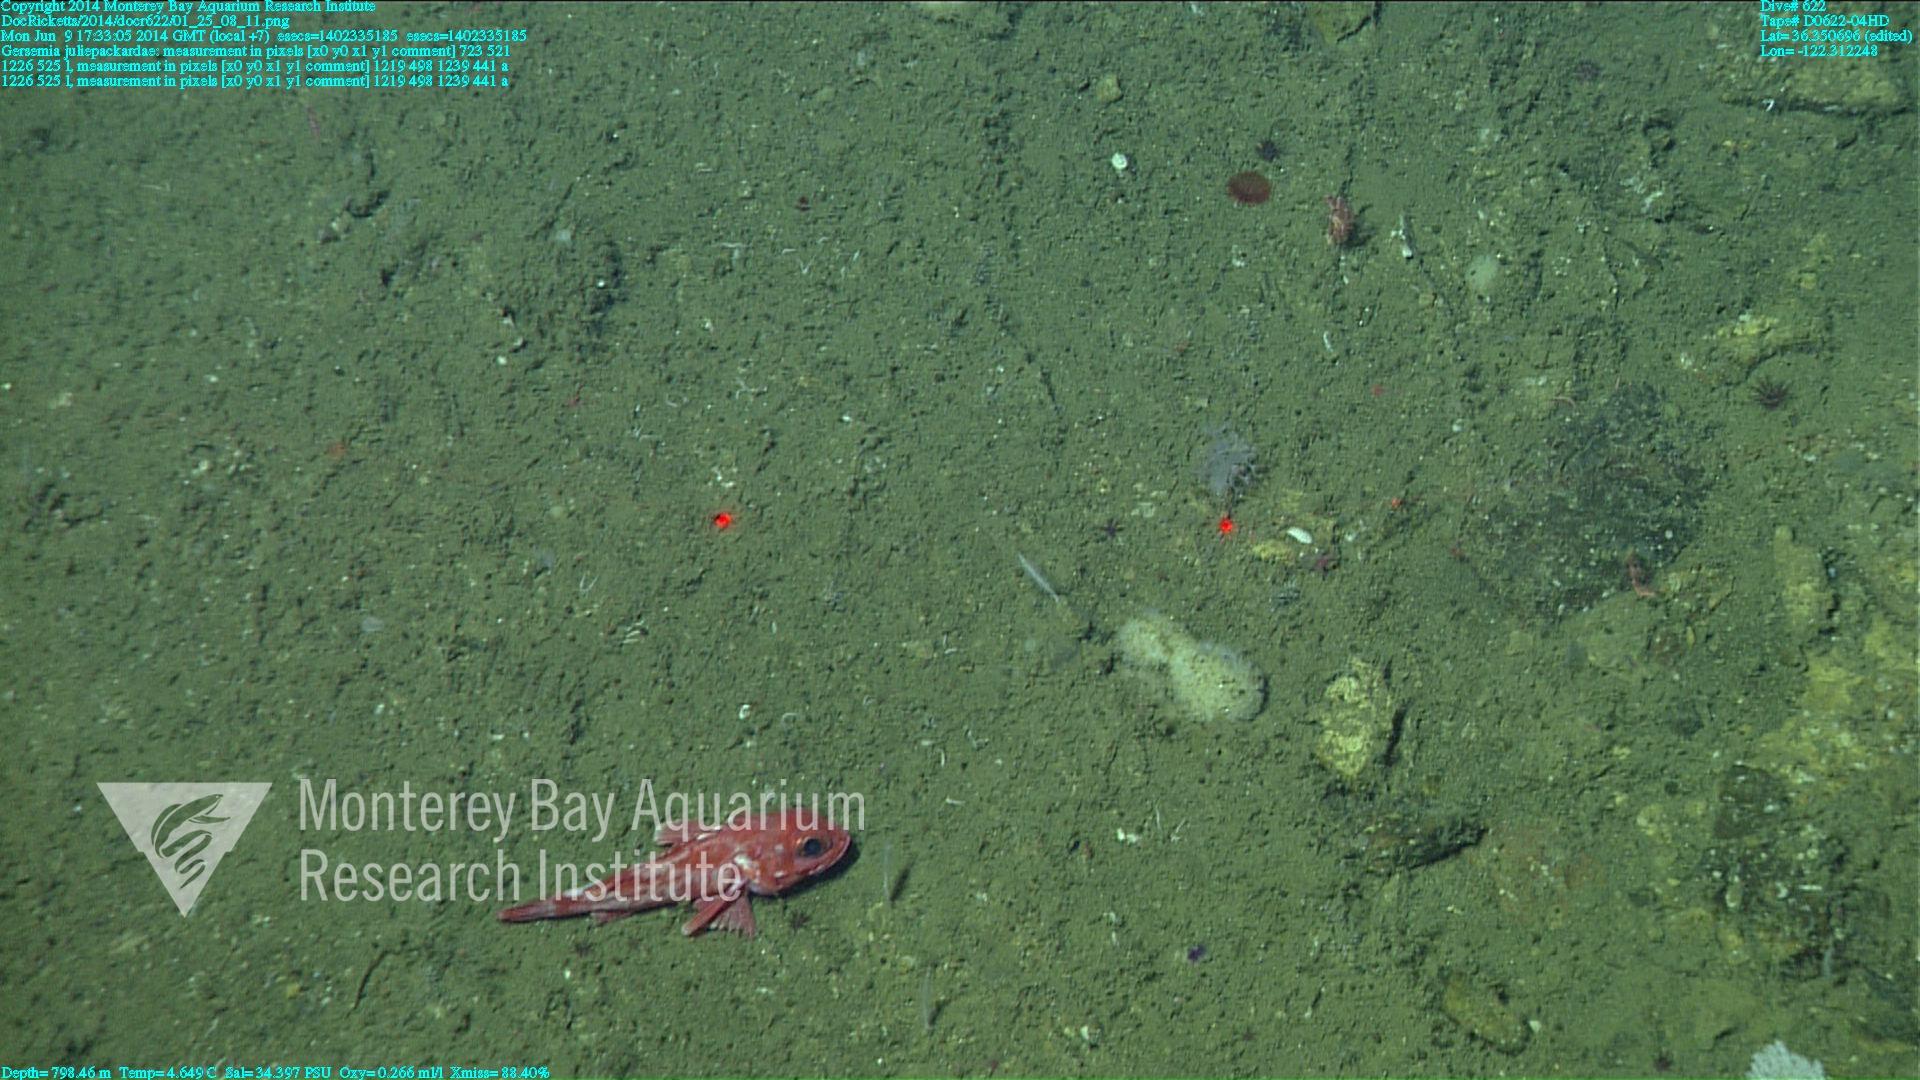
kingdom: Animalia
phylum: Cnidaria
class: Anthozoa
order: Malacalcyonacea
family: Alcyoniidae
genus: Gersemia
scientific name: Gersemia juliepackardae
